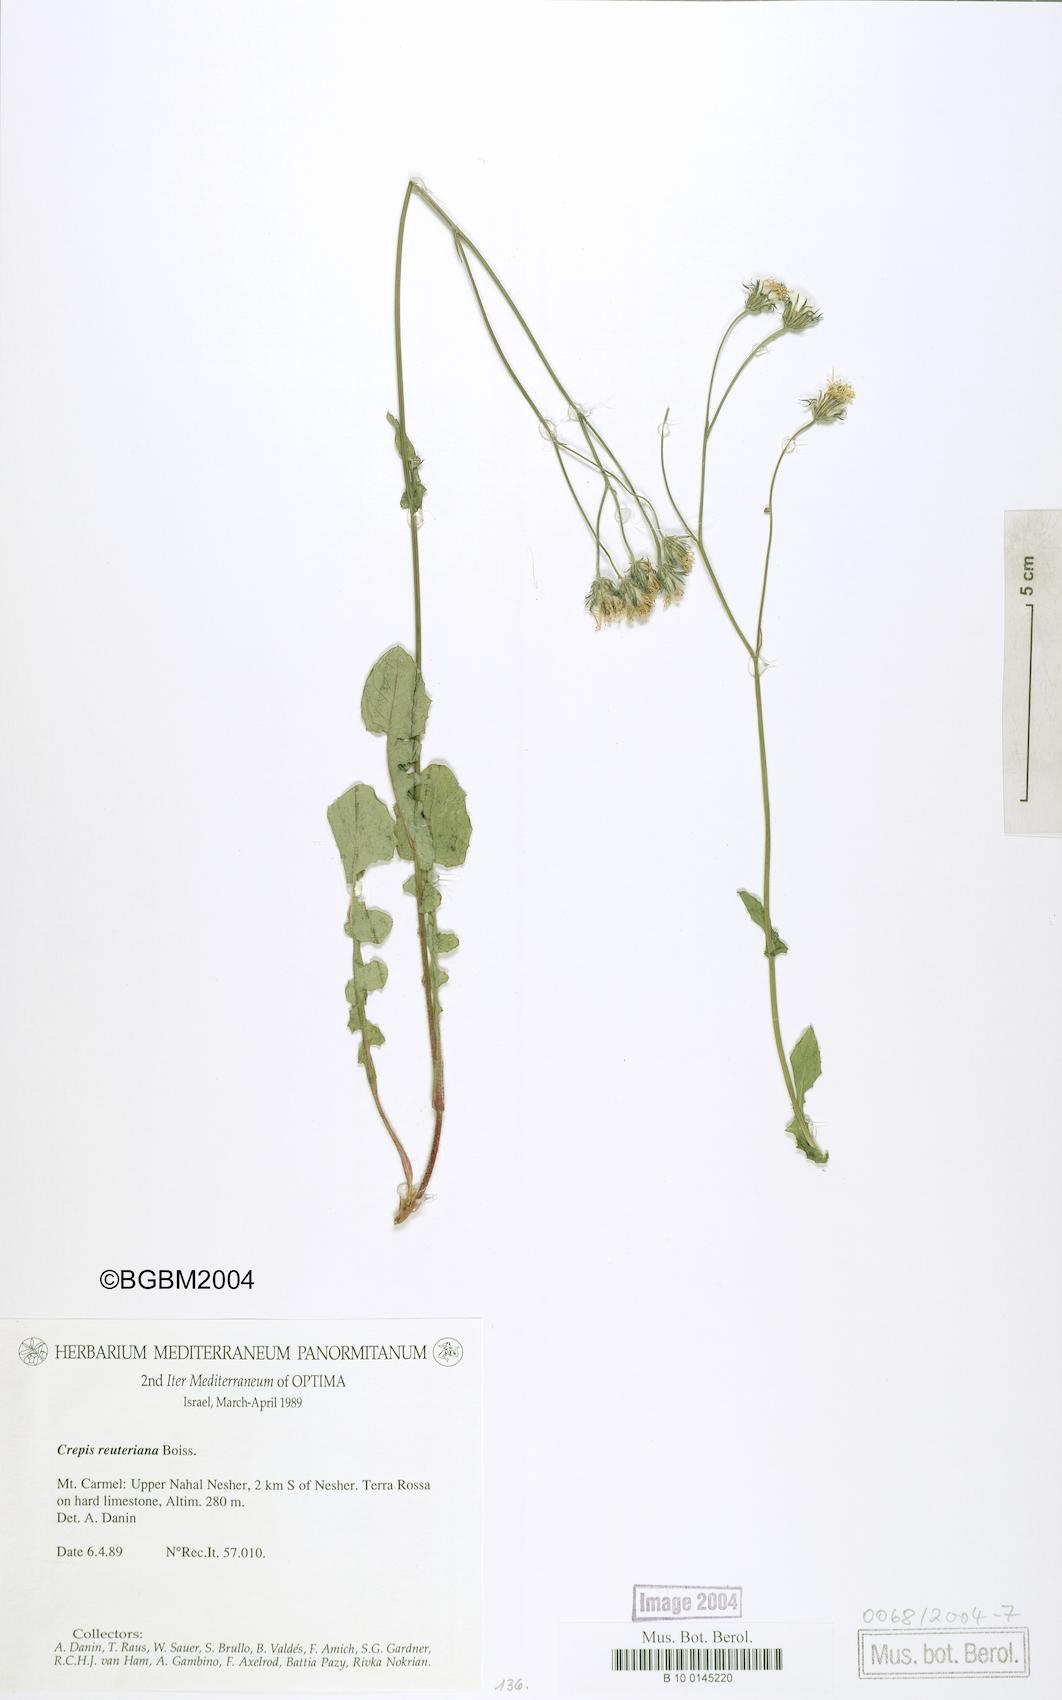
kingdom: Plantae
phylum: Tracheophyta
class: Magnoliopsida
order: Asterales
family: Asteraceae
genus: Crepis
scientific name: Crepis reuteriana
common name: Hawk's-beard
